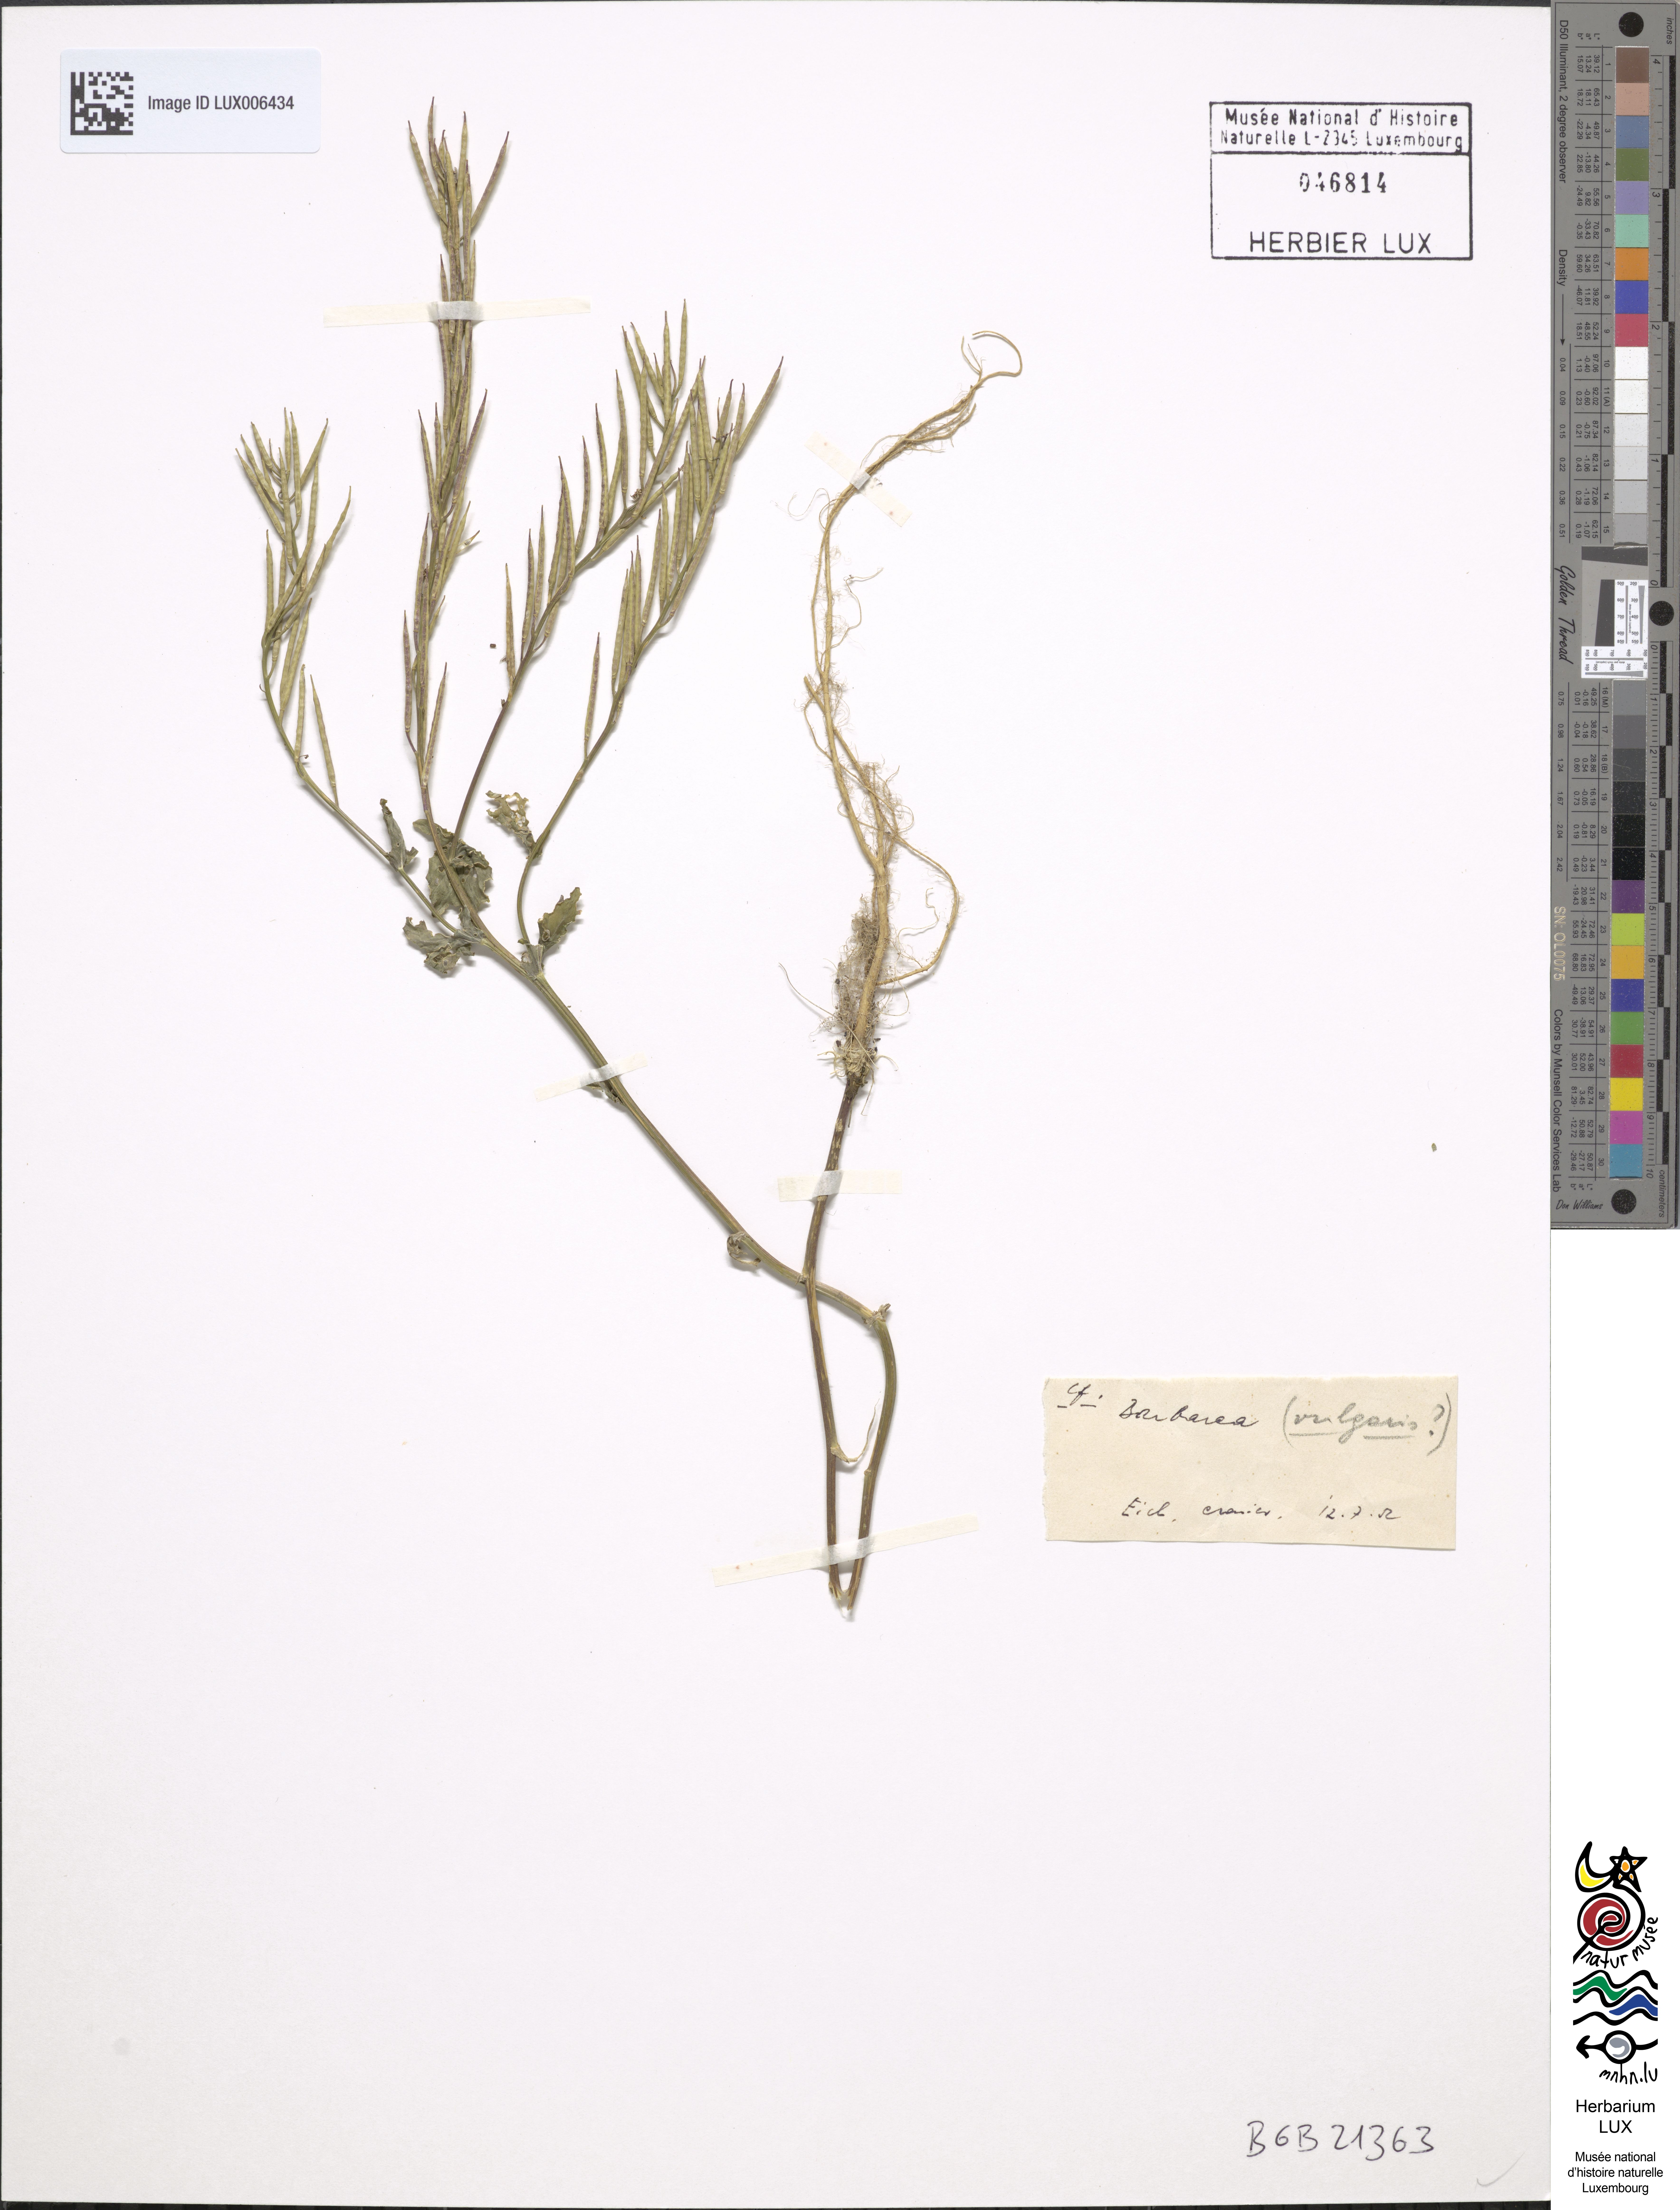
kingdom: Plantae
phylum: Tracheophyta
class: Magnoliopsida
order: Brassicales
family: Brassicaceae
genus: Barbarea
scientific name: Barbarea vulgaris
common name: Cressy-greens
